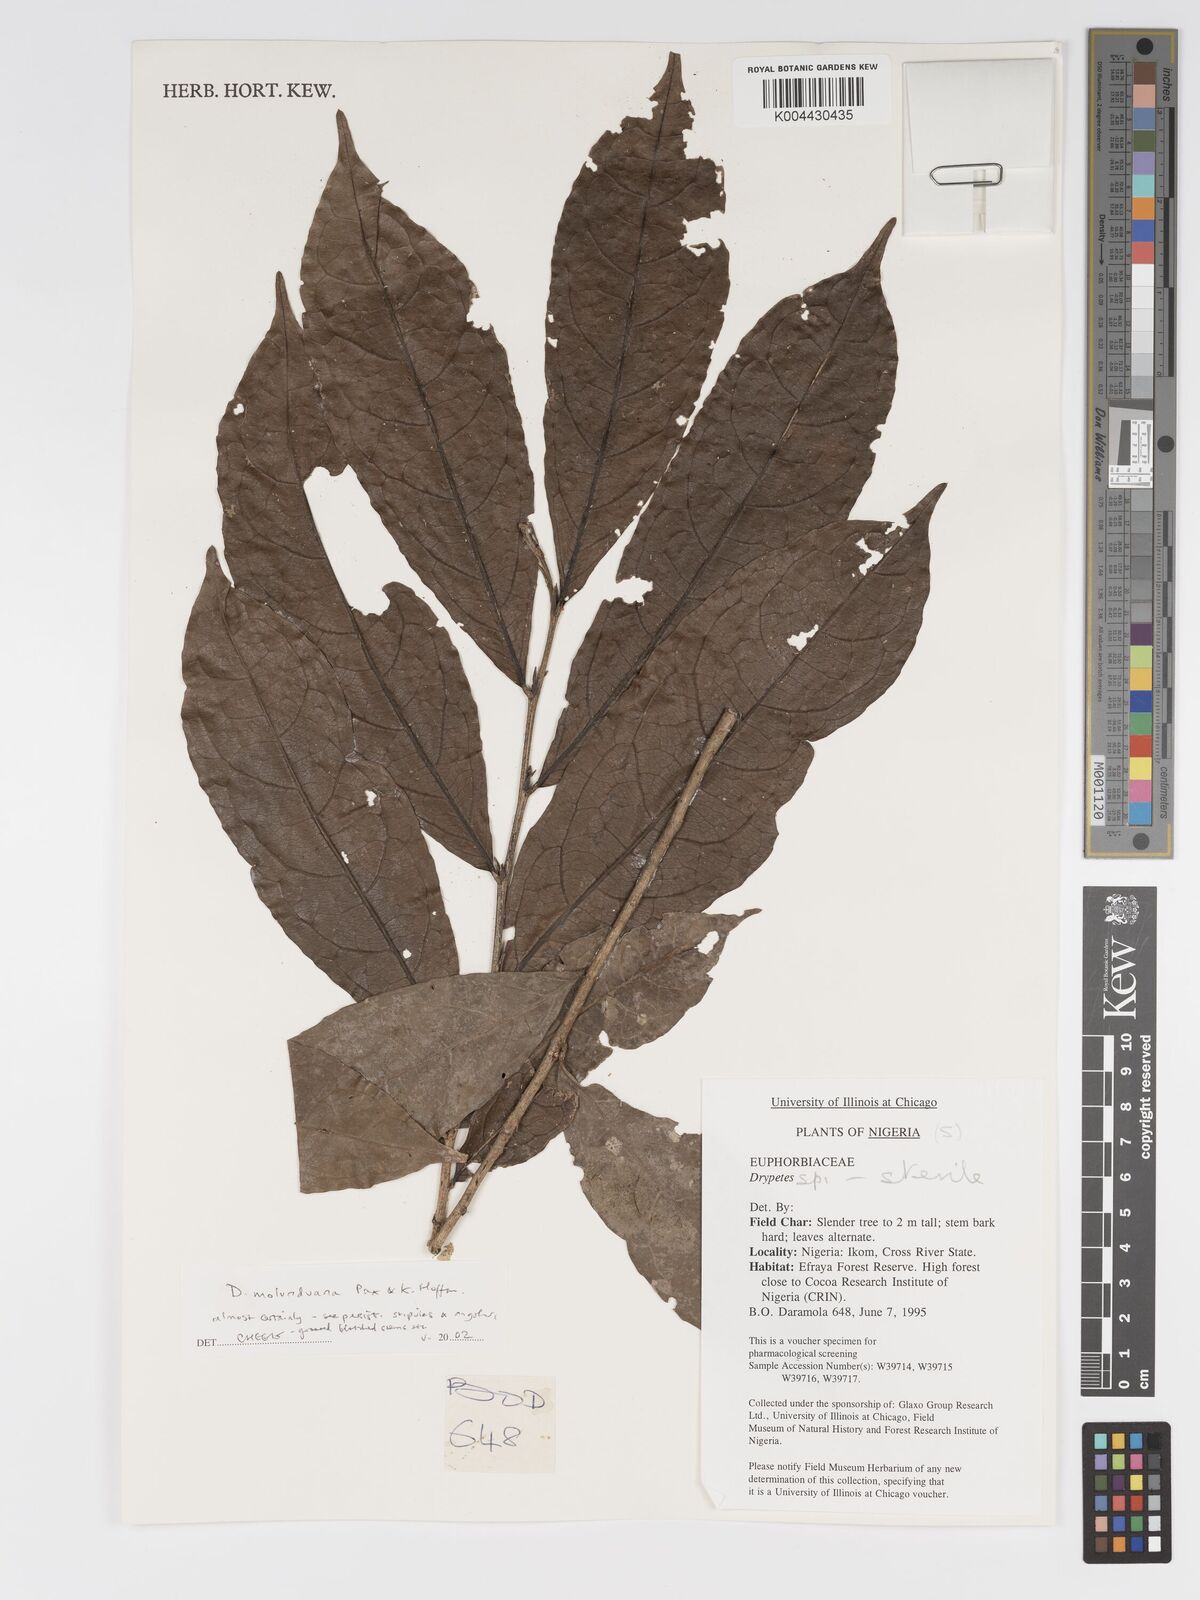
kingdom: Plantae
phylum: Tracheophyta
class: Magnoliopsida
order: Malpighiales
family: Putranjivaceae
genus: Drypetes
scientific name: Drypetes molunduana
